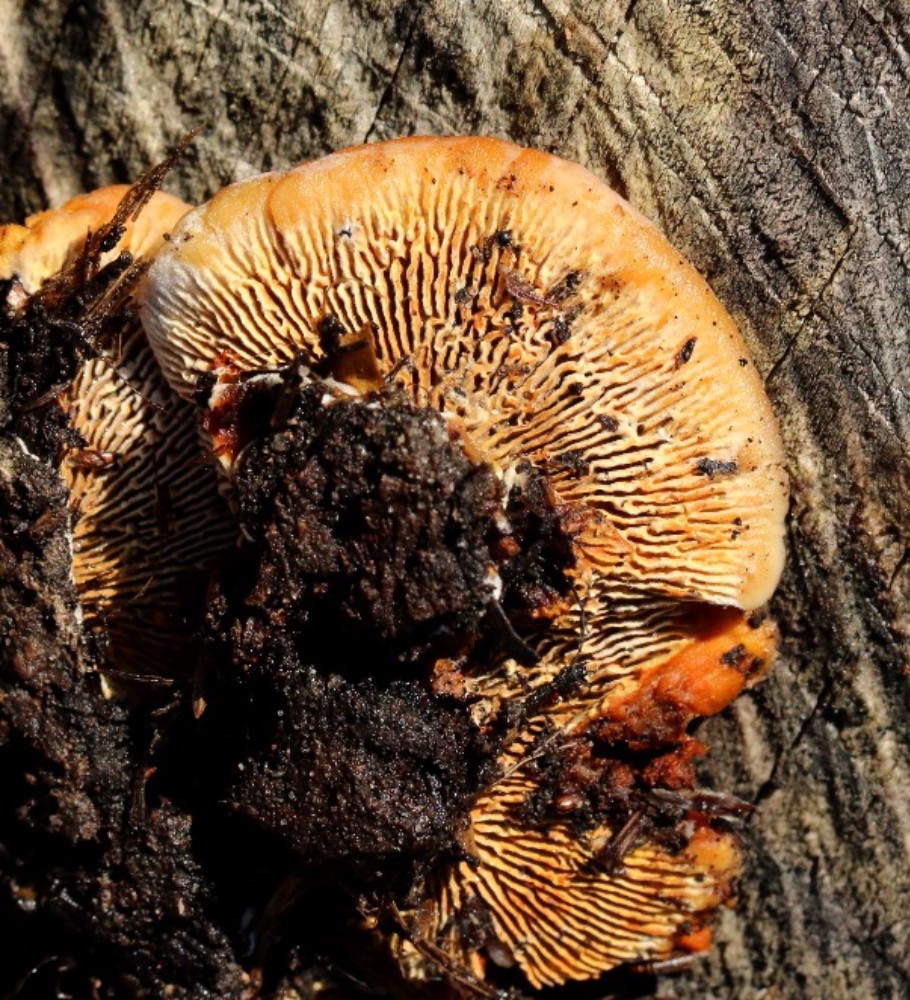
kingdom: Fungi
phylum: Basidiomycota
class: Agaricomycetes
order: Gloeophyllales
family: Gloeophyllaceae
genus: Gloeophyllum
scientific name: Gloeophyllum sepiarium
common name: fyrre-korkhat
